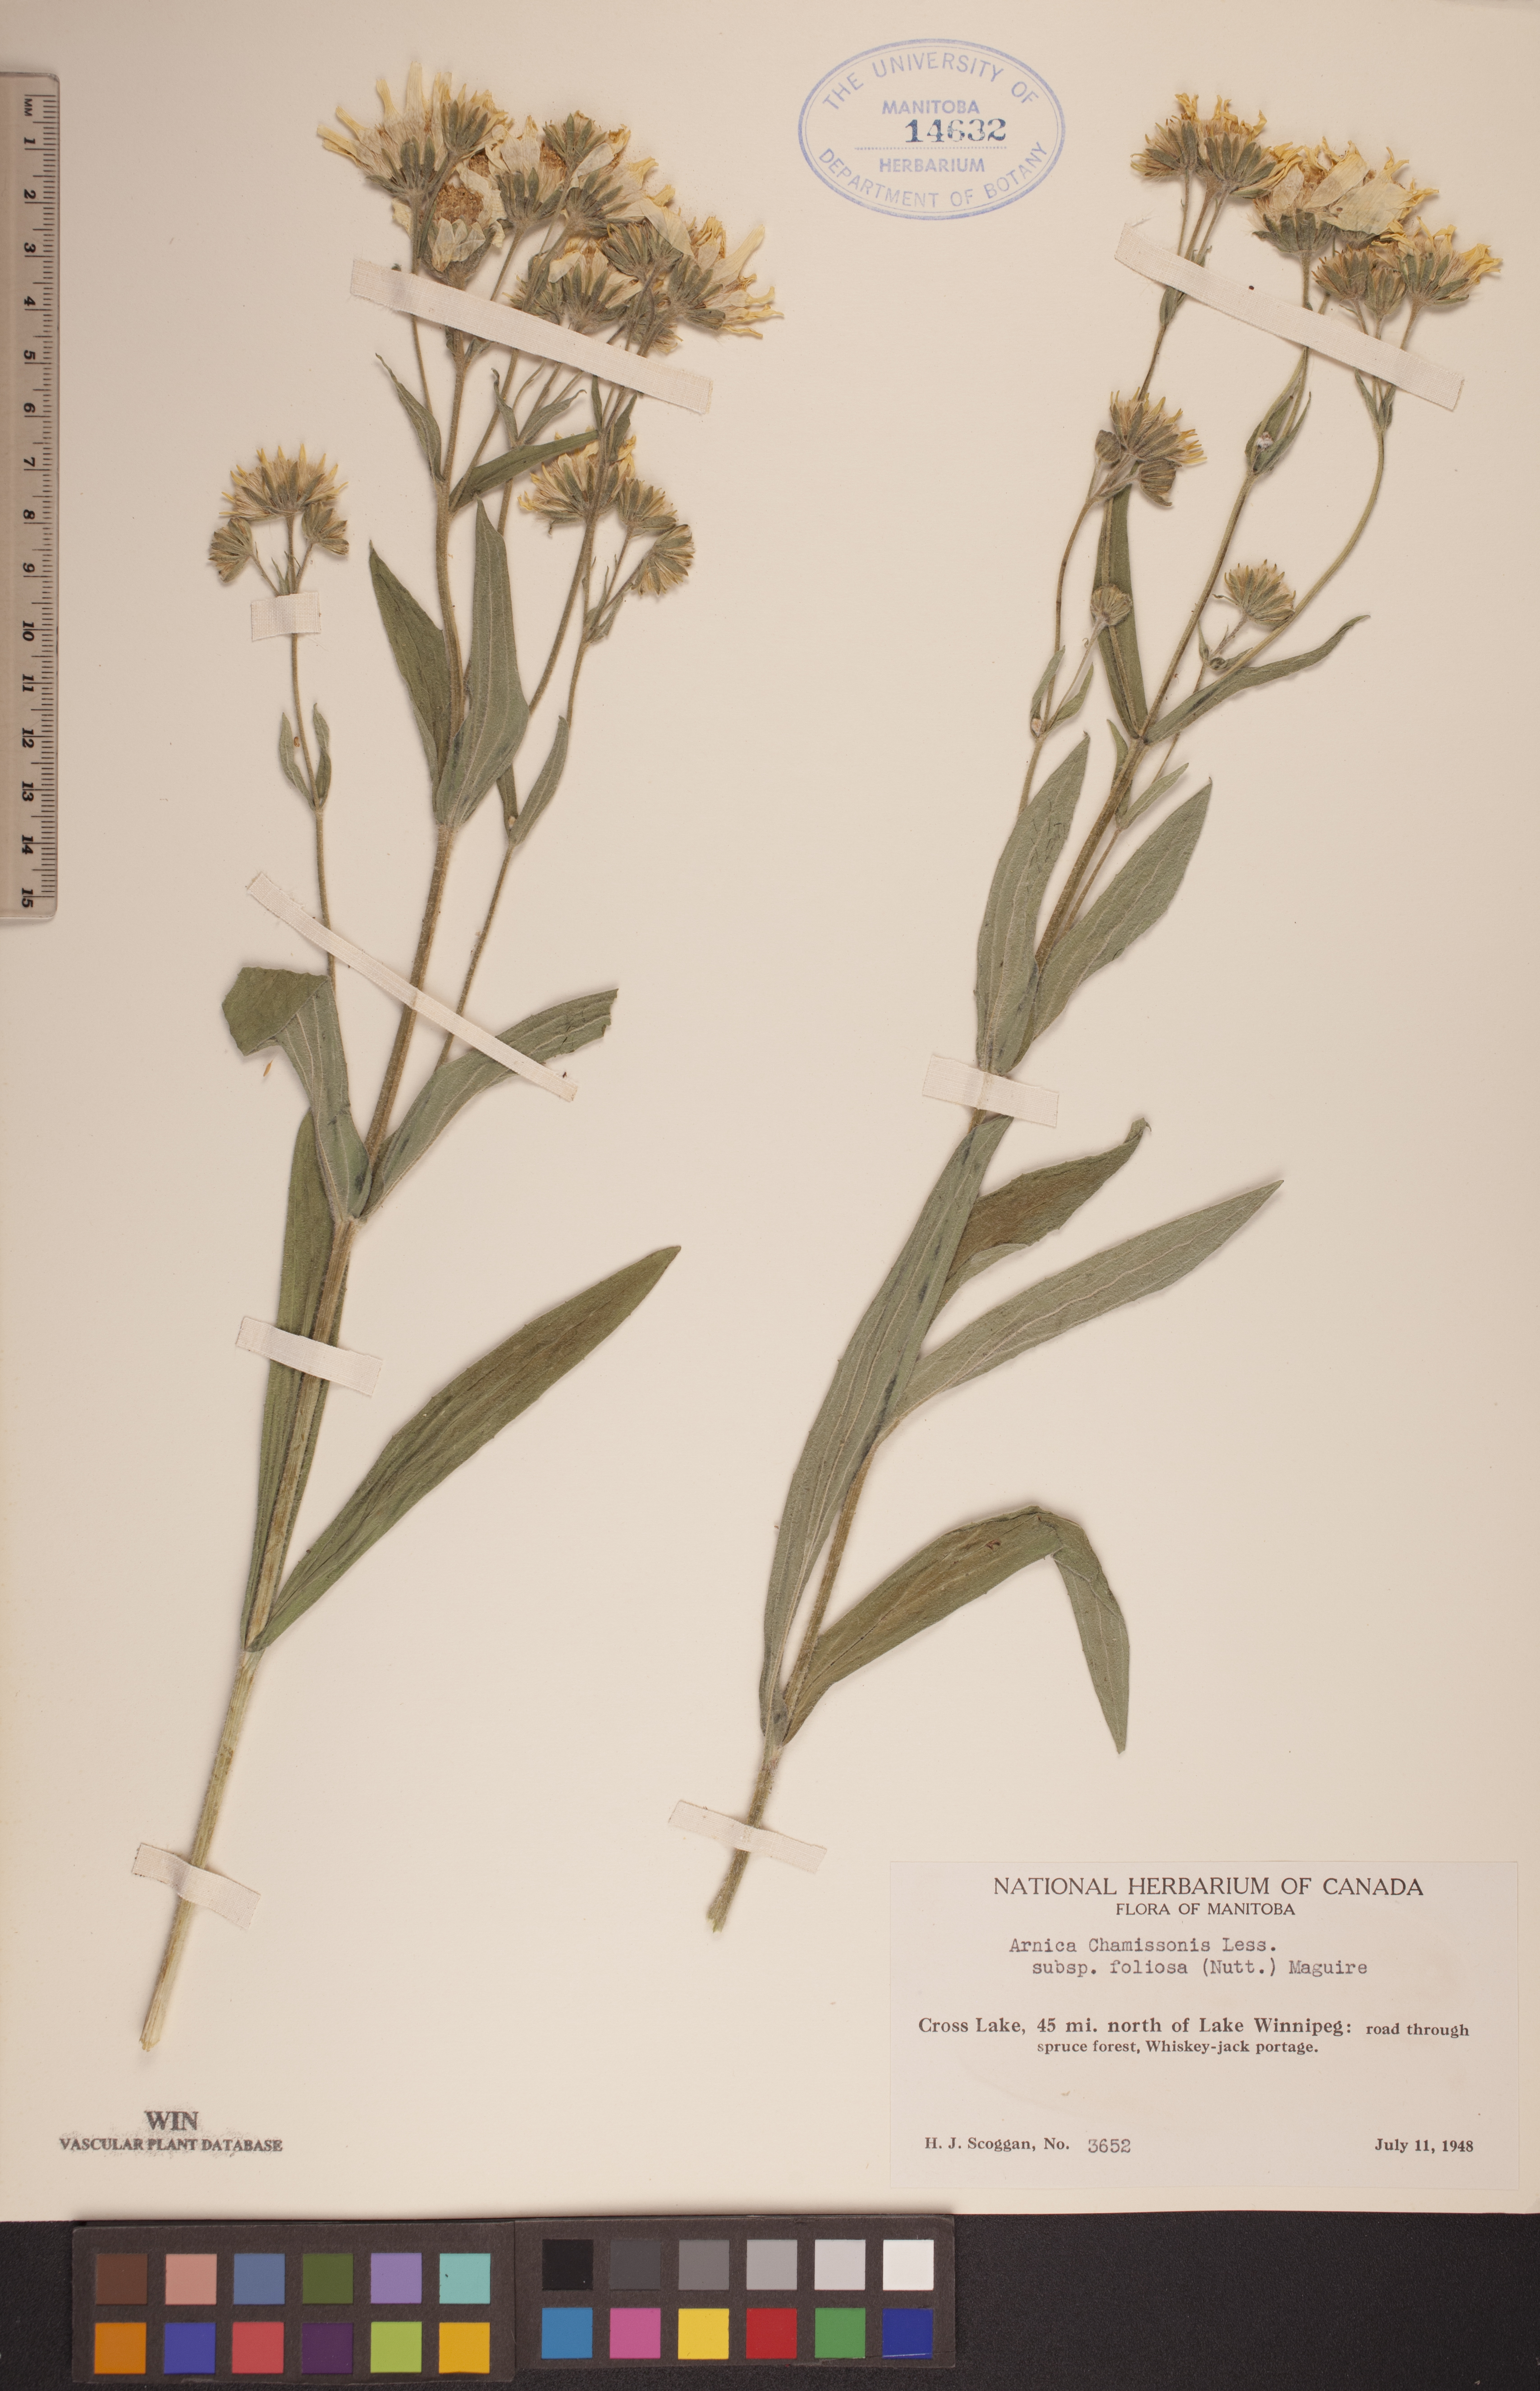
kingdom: Plantae
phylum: Tracheophyta
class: Magnoliopsida
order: Asterales
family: Asteraceae
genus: Arnica
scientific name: Arnica chamissonis
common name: Leafy arnica
